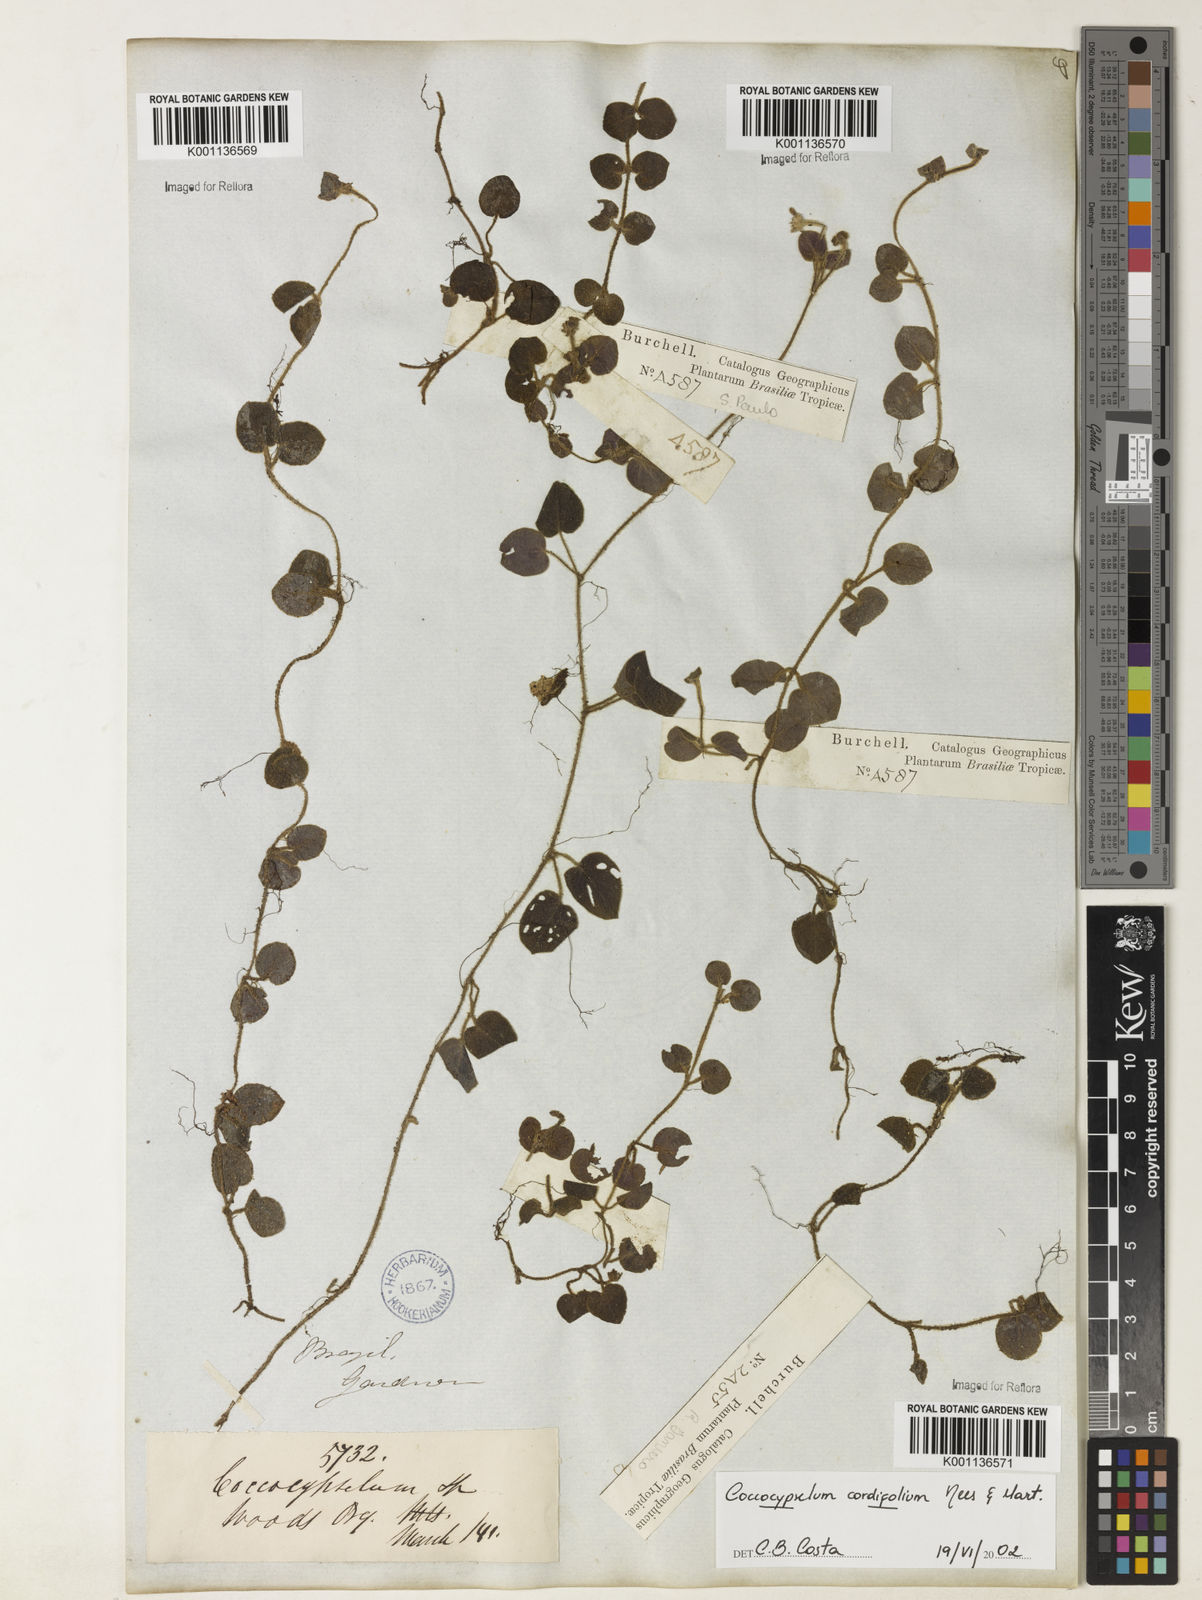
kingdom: Plantae
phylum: Tracheophyta
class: Magnoliopsida
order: Gentianales
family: Rubiaceae
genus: Coccocypselum
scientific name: Coccocypselum cordifolium
